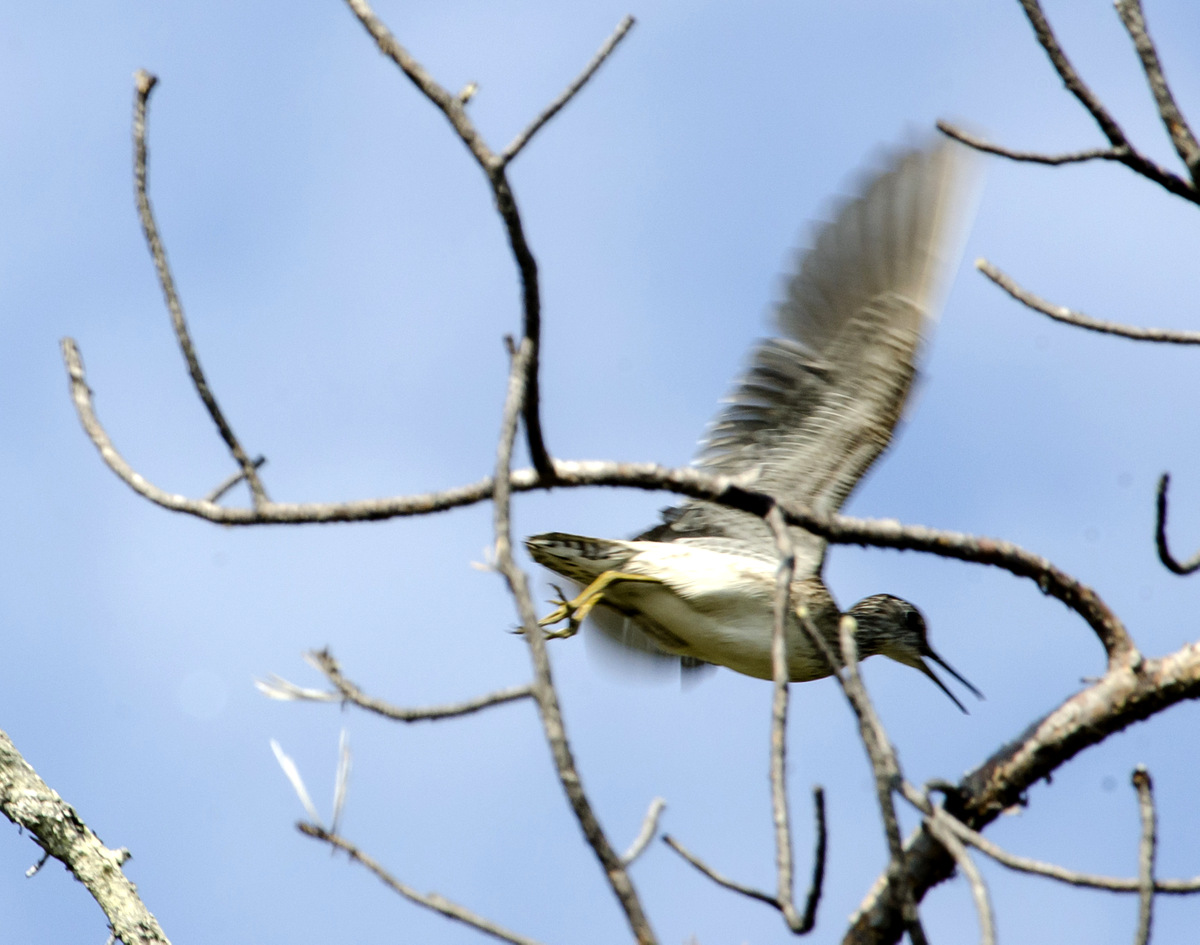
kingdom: Animalia
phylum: Chordata
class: Aves
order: Charadriiformes
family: Scolopacidae
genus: Tringa
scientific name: Tringa glareola
